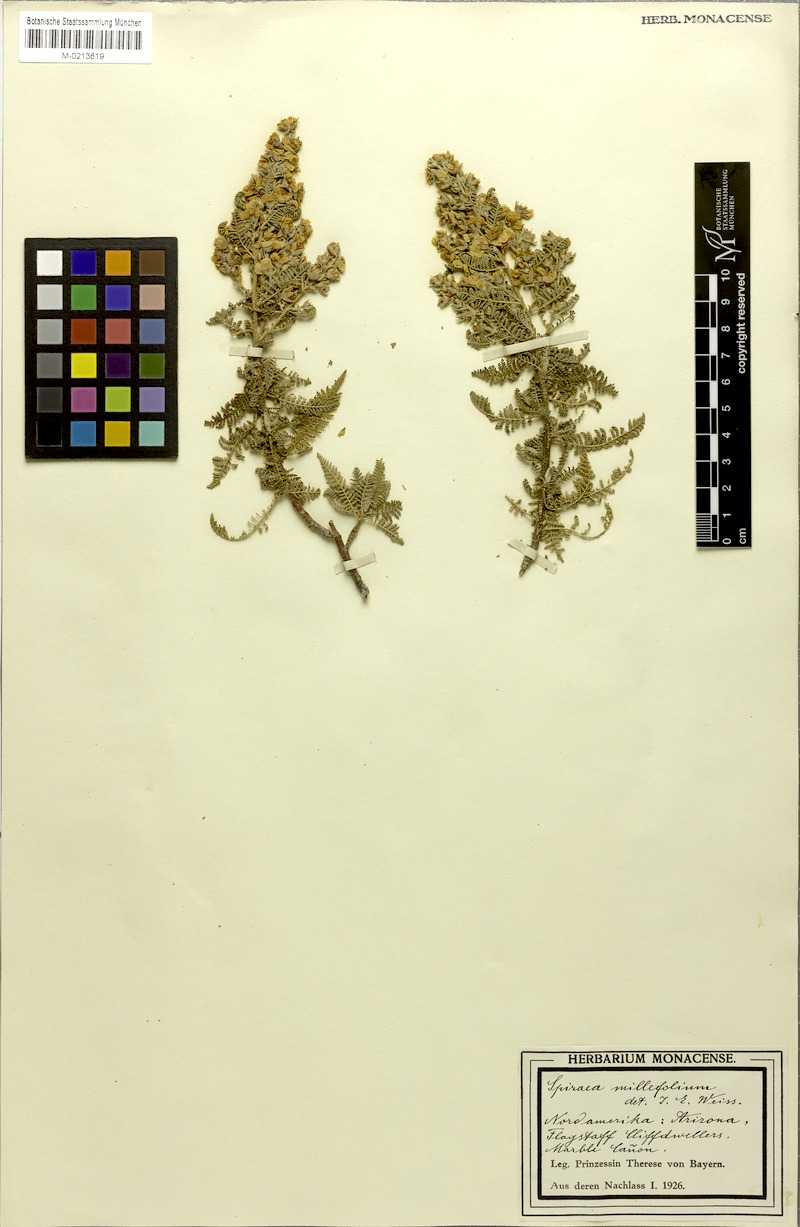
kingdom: Plantae
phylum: Tracheophyta
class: Magnoliopsida
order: Rosales
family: Rosaceae
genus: Chamaebatiaria
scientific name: Chamaebatiaria millefolium
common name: Fernbush
